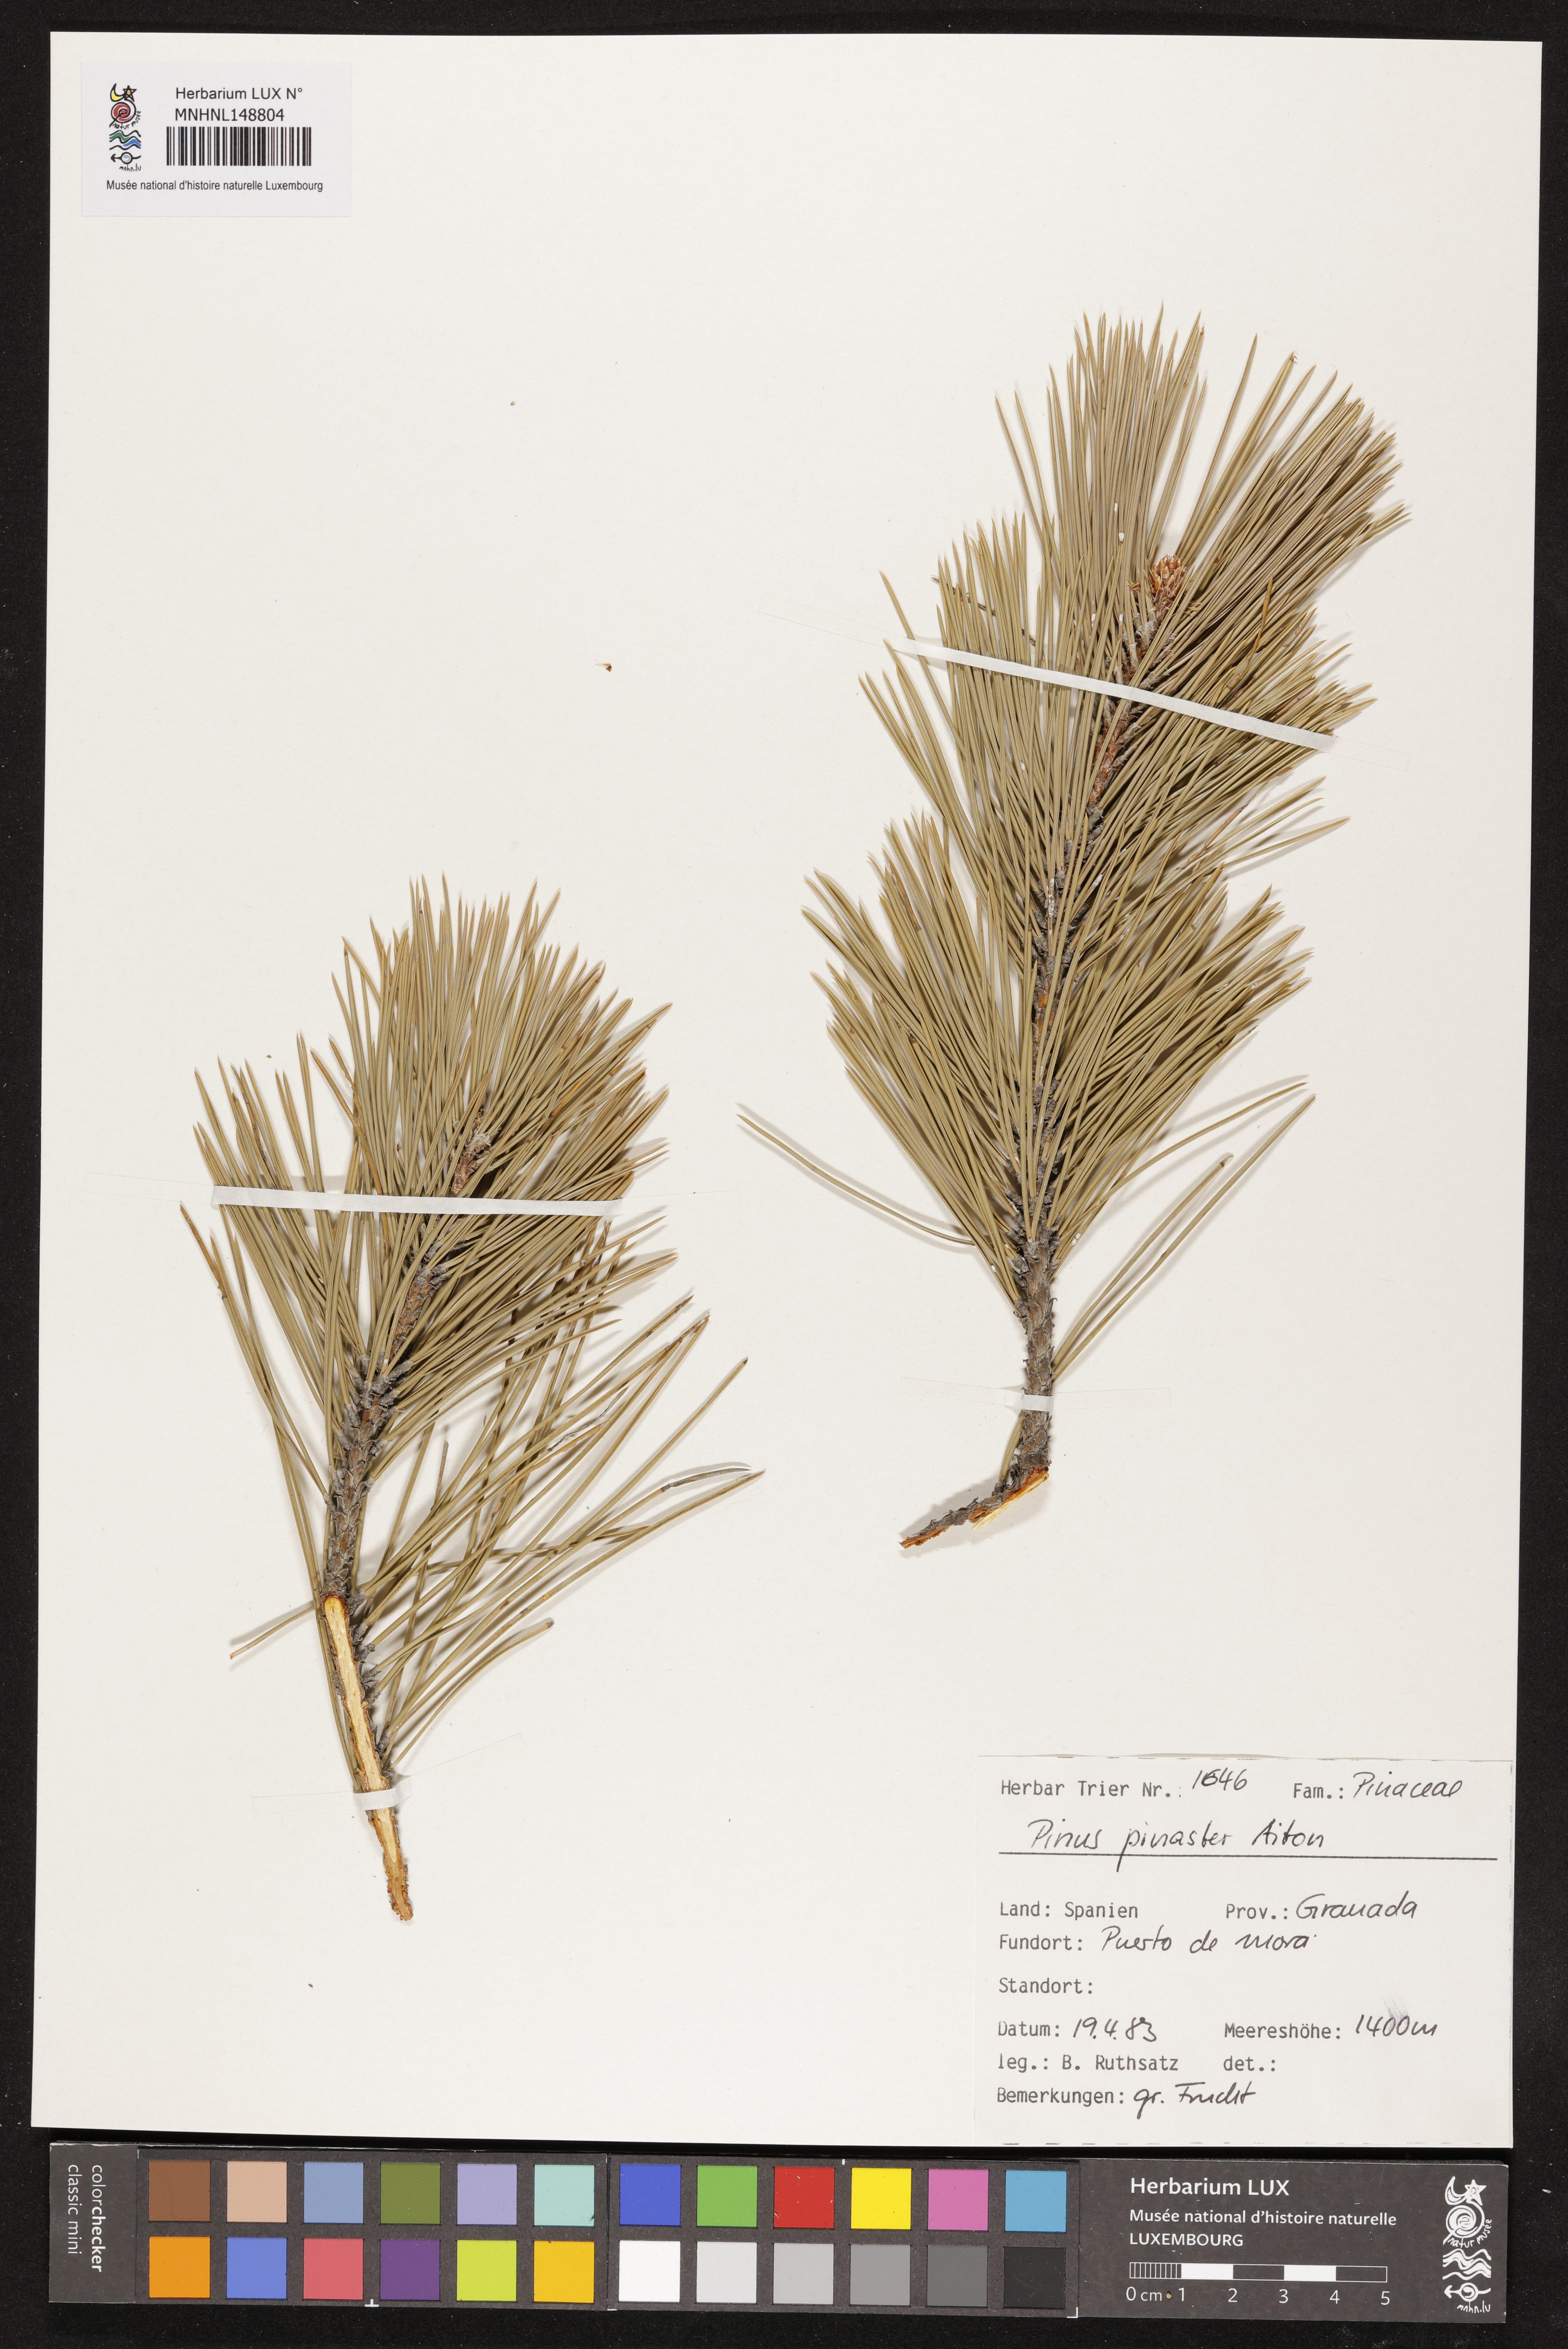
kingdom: Plantae
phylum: Tracheophyta
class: Pinopsida
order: Pinales
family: Pinaceae
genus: Pinus
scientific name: Pinus pinaster
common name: Maritime pine
